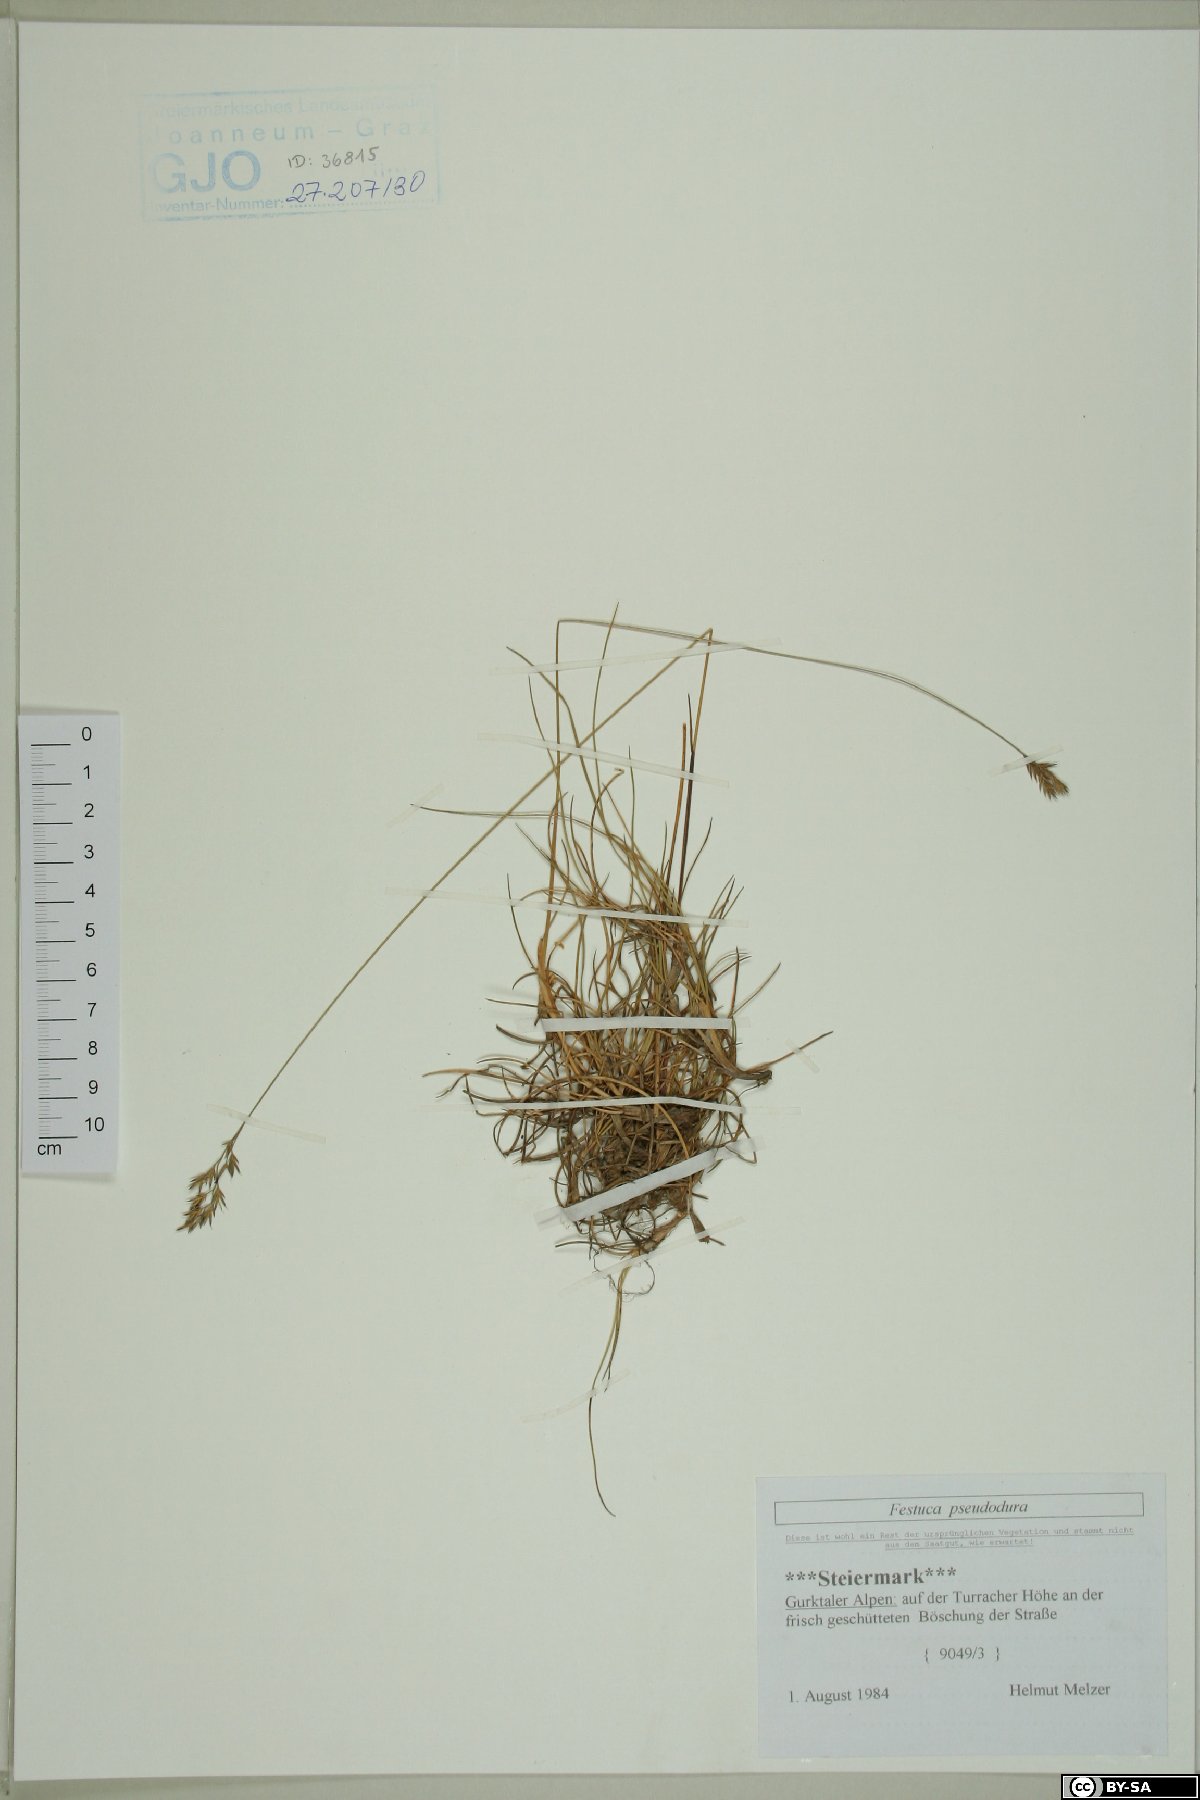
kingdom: Plantae
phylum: Tracheophyta
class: Liliopsida
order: Poales
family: Poaceae
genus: Festuca
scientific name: Festuca pseudodura
